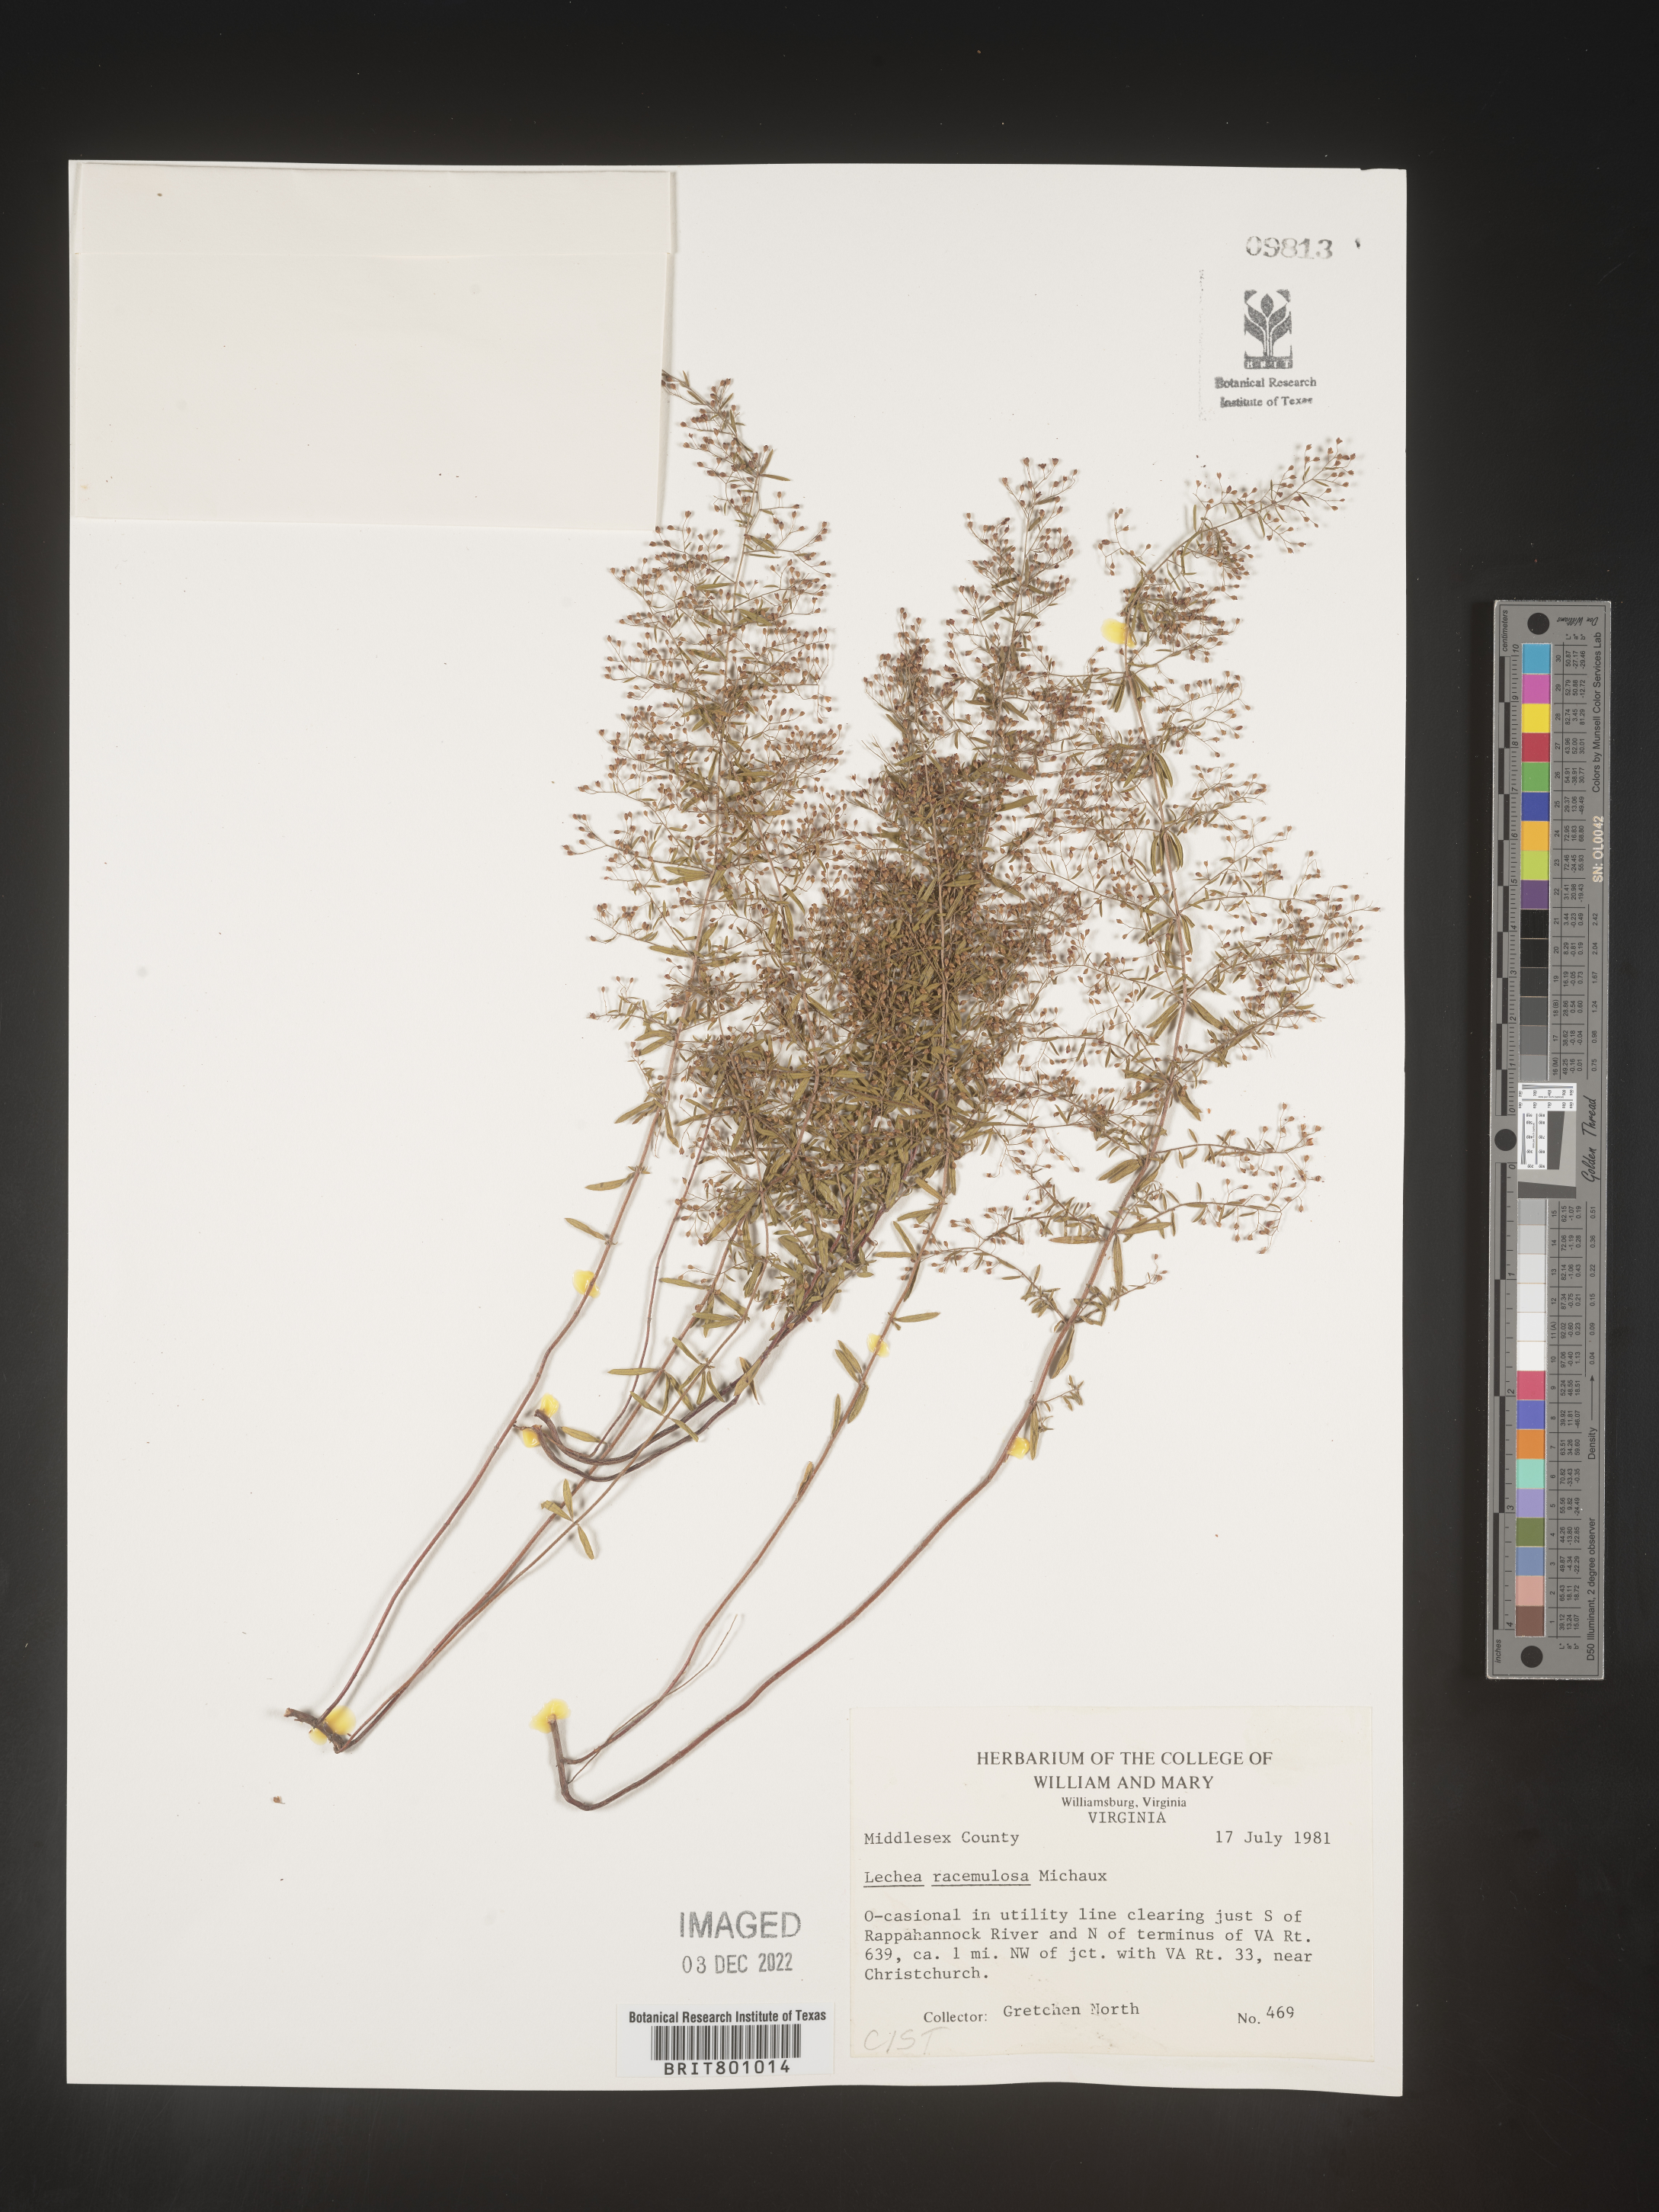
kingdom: Plantae
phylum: Tracheophyta
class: Magnoliopsida
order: Malvales
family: Cistaceae
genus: Lechea
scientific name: Lechea racemulosa
